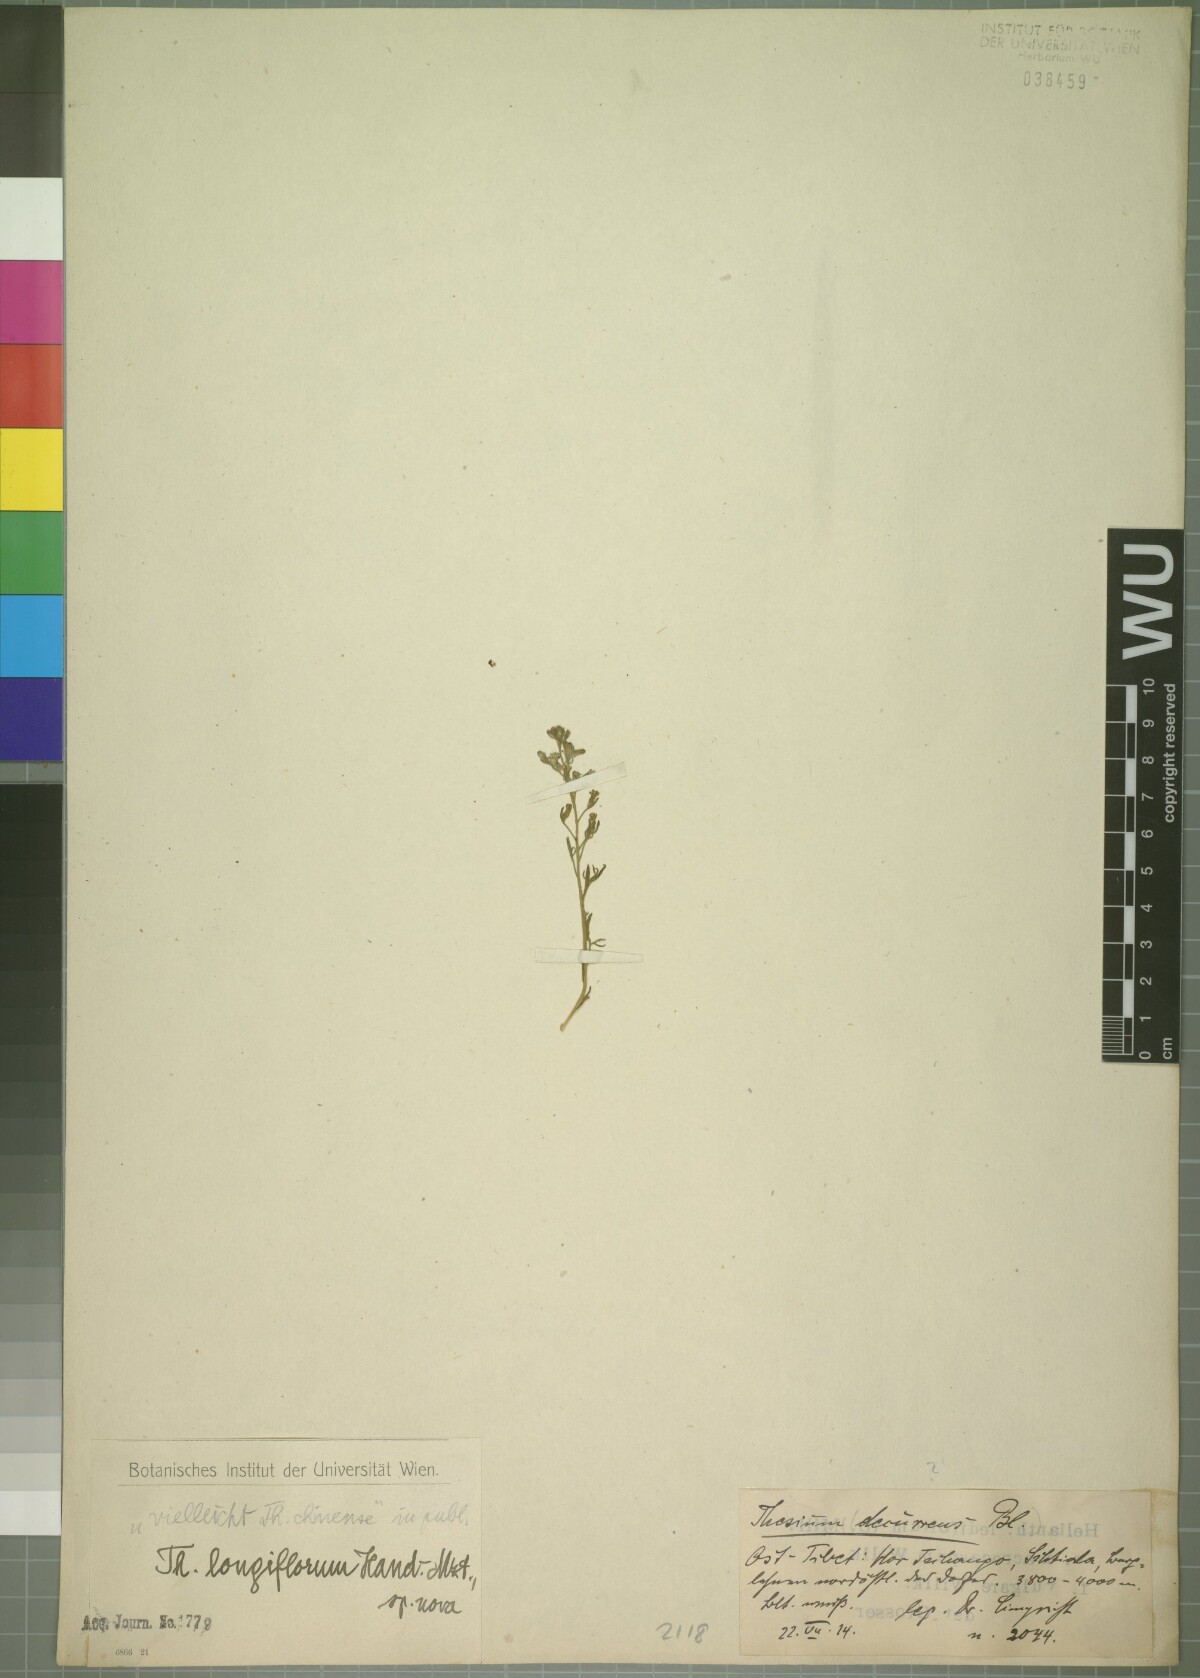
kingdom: Plantae
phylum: Tracheophyta
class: Magnoliopsida
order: Santalales
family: Thesiaceae
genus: Thesium
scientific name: Thesium longiflorum
